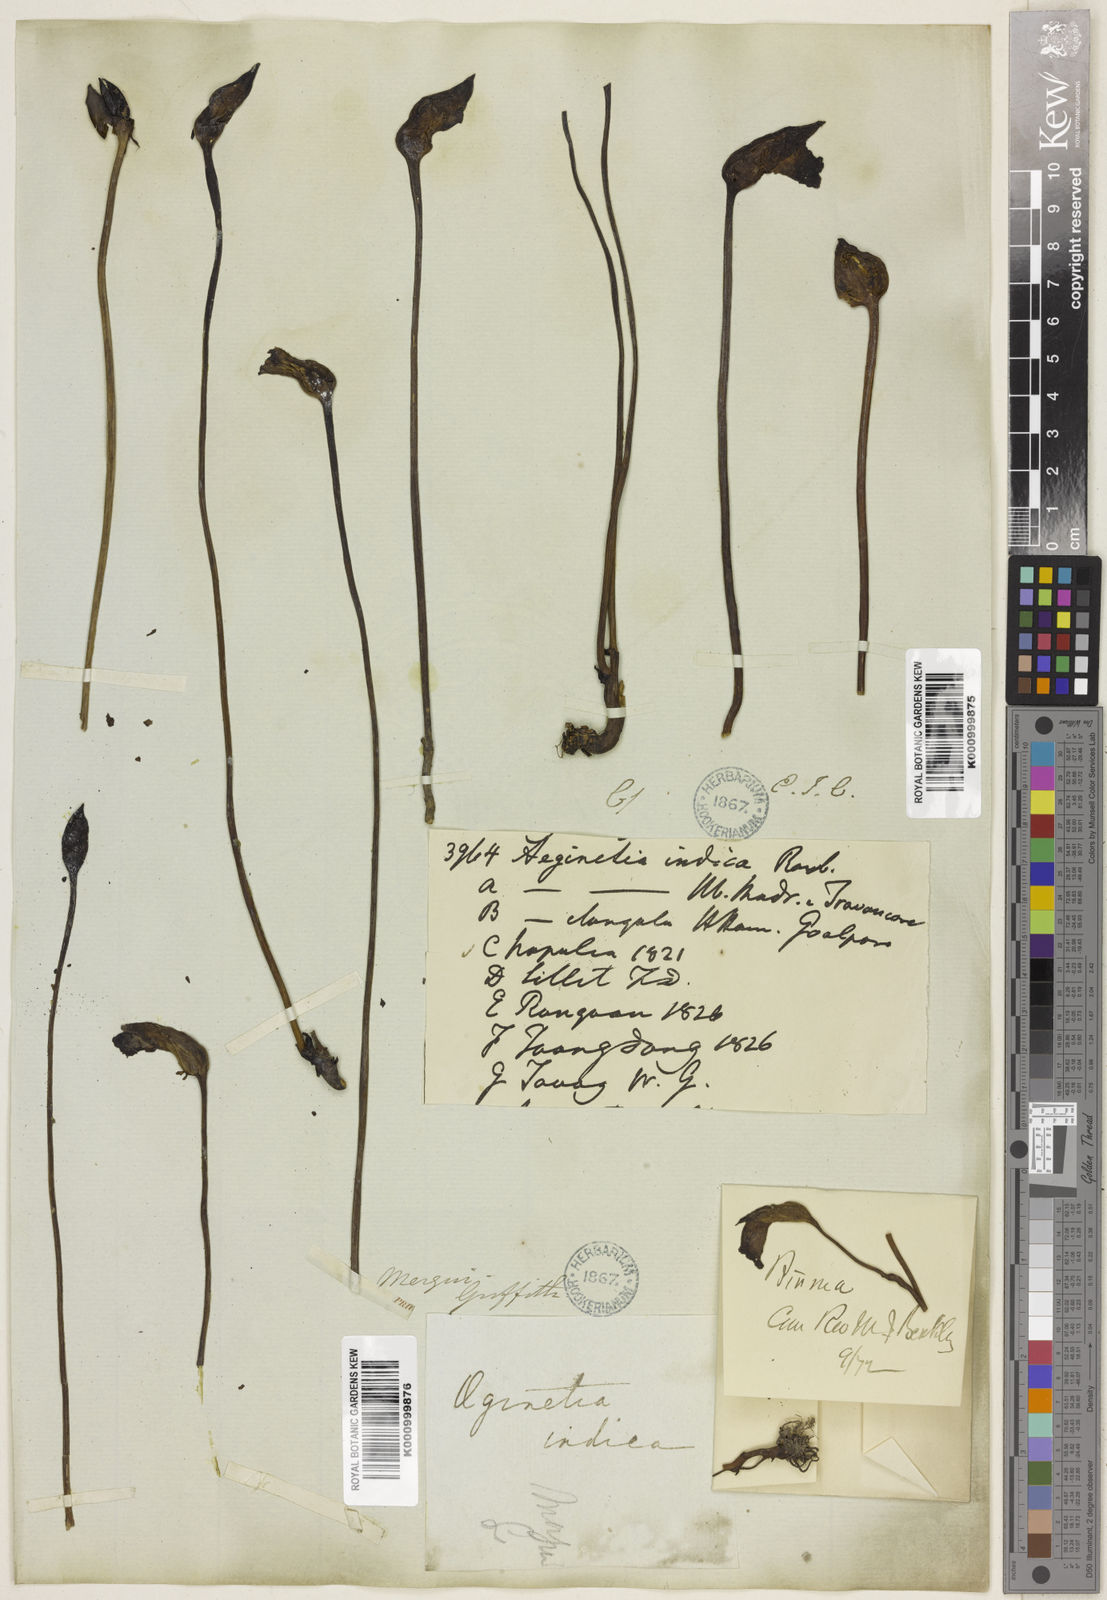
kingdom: Plantae
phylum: Tracheophyta
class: Magnoliopsida
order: Lamiales
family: Orobanchaceae
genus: Aeginetia
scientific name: Aeginetia
